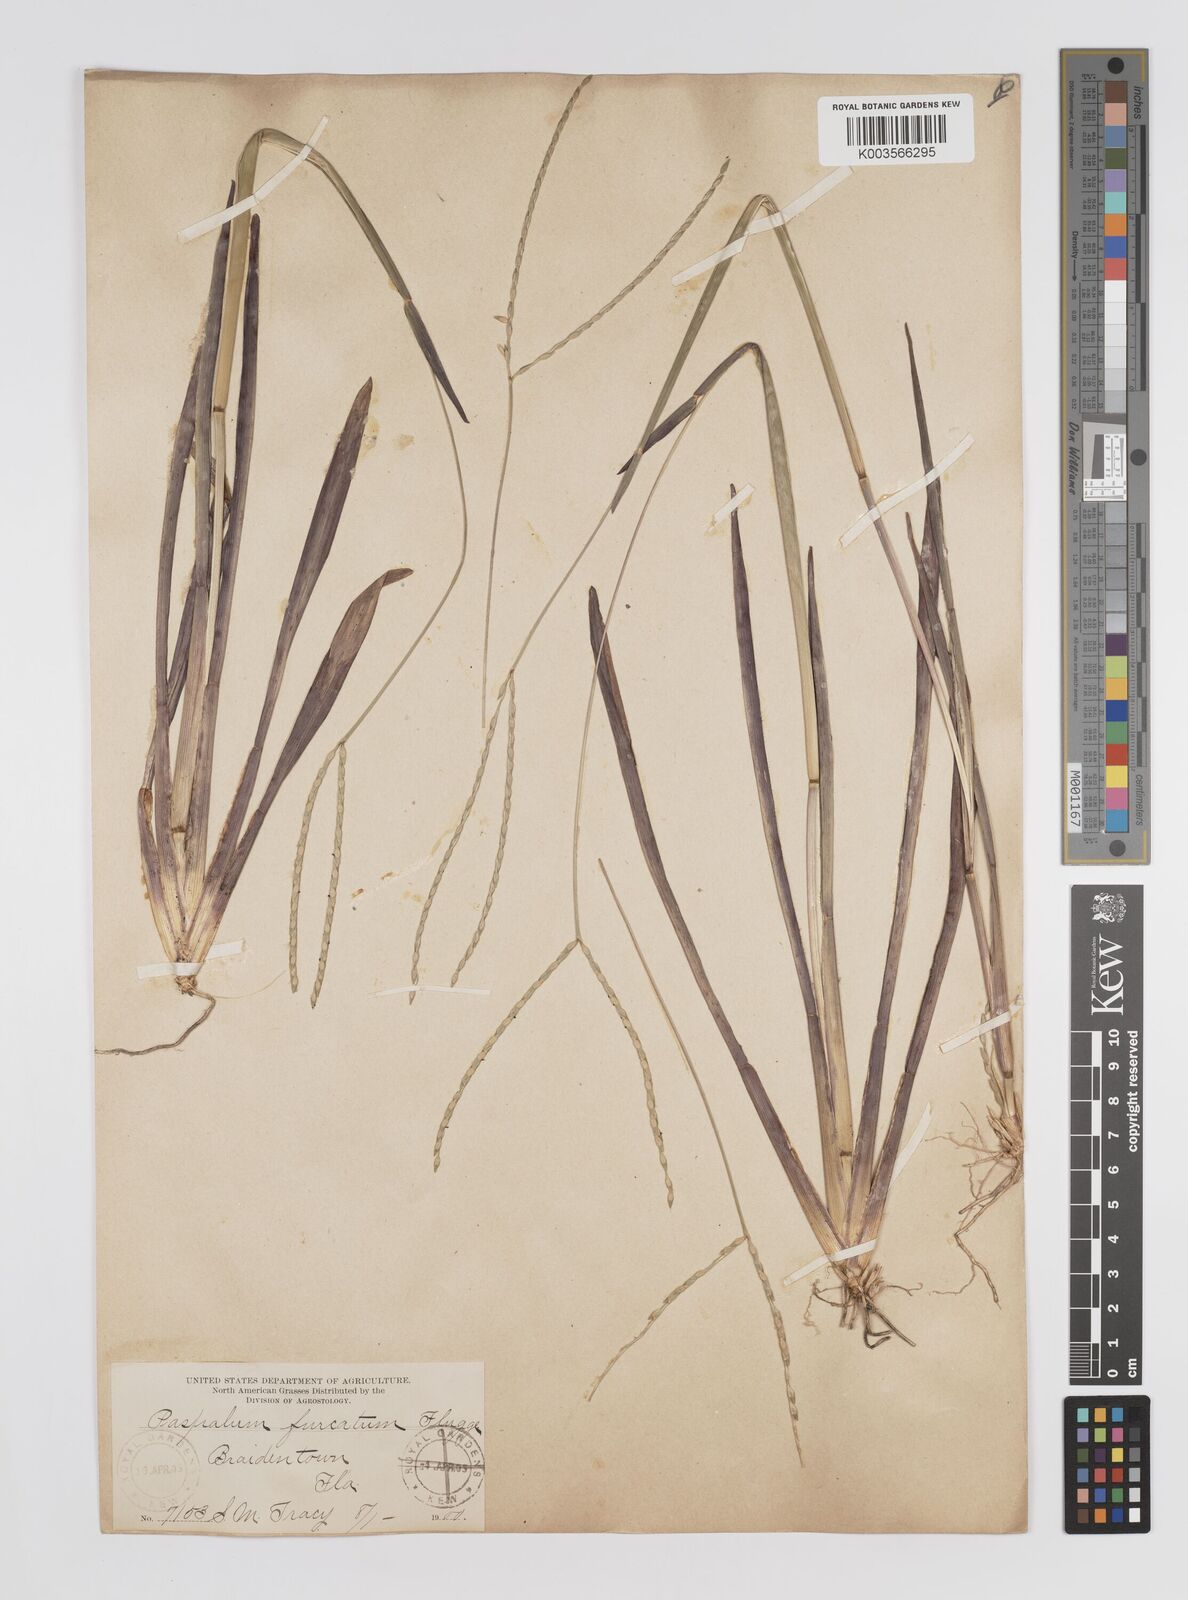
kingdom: Plantae
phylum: Tracheophyta
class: Liliopsida
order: Poales
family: Poaceae
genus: Axonopus
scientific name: Axonopus furcatus
